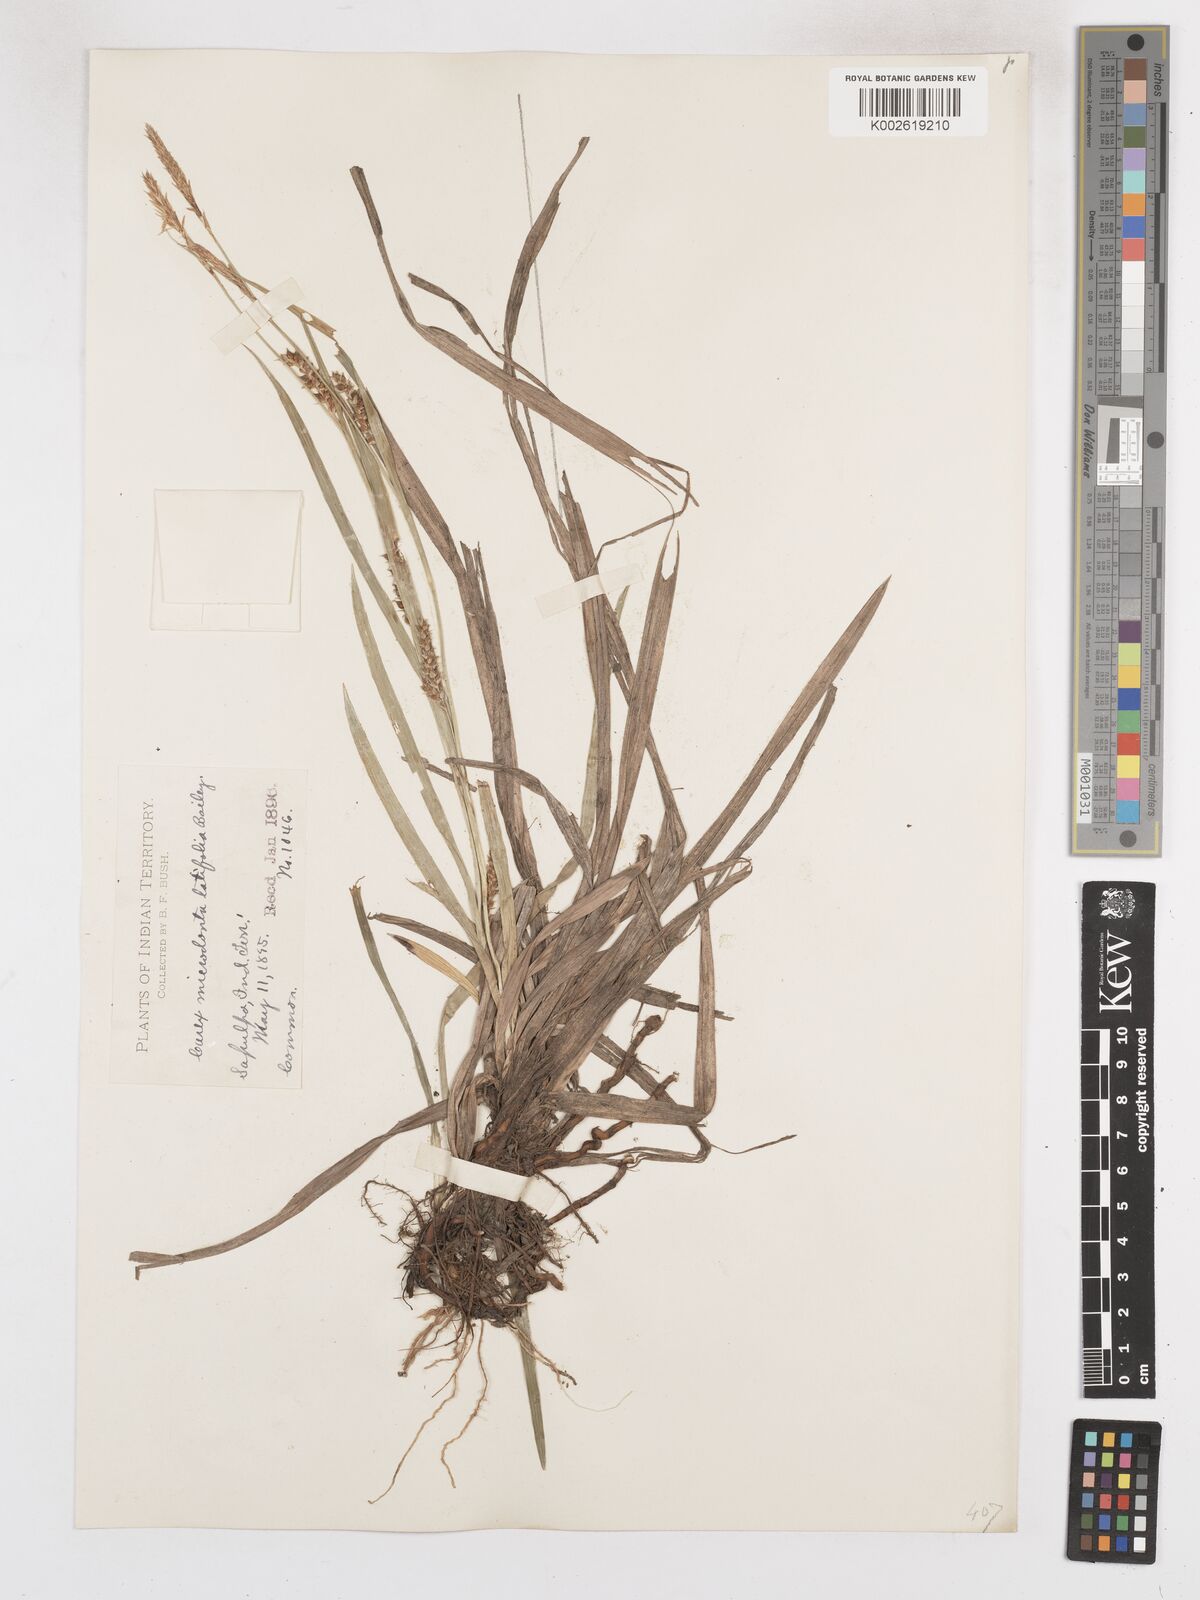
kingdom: Plantae
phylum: Tracheophyta
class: Liliopsida
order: Poales
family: Cyperaceae
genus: Carex
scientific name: Carex microdonta
